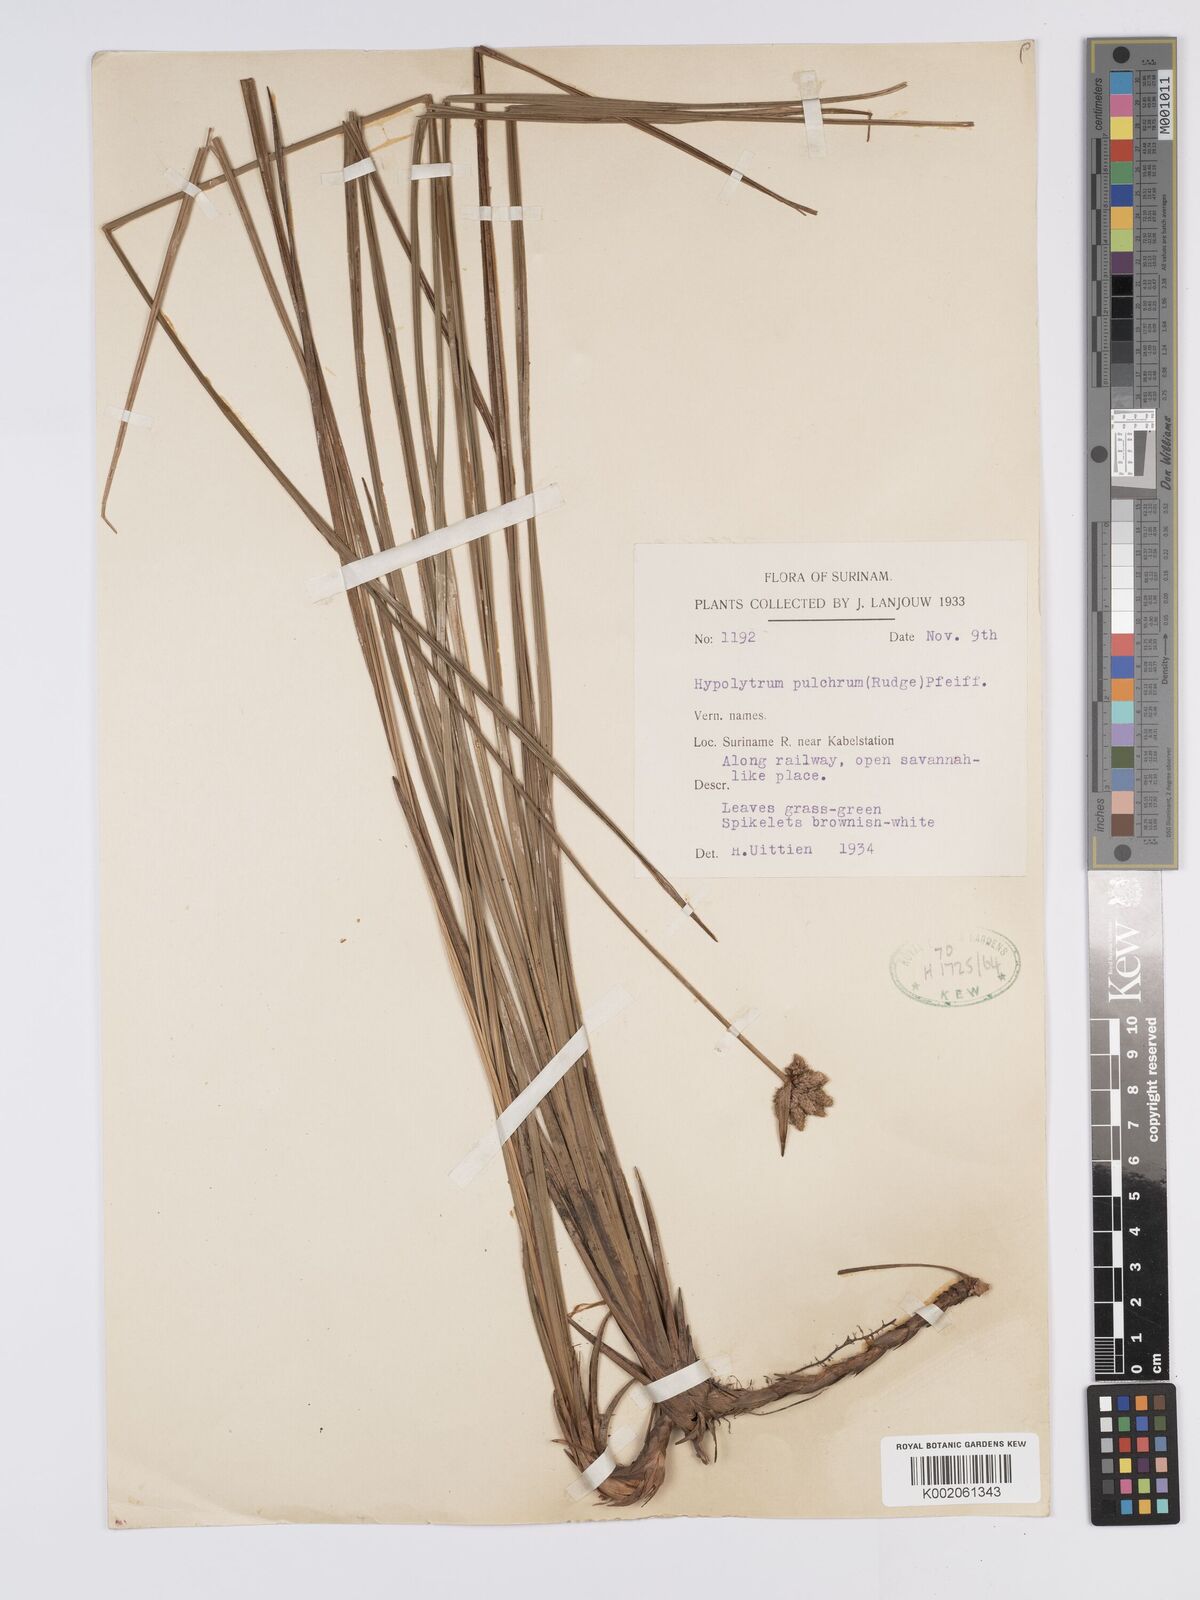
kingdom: Plantae
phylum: Tracheophyta
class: Liliopsida
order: Poales
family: Cyperaceae
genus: Hypolytrum
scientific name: Hypolytrum pulchrum
